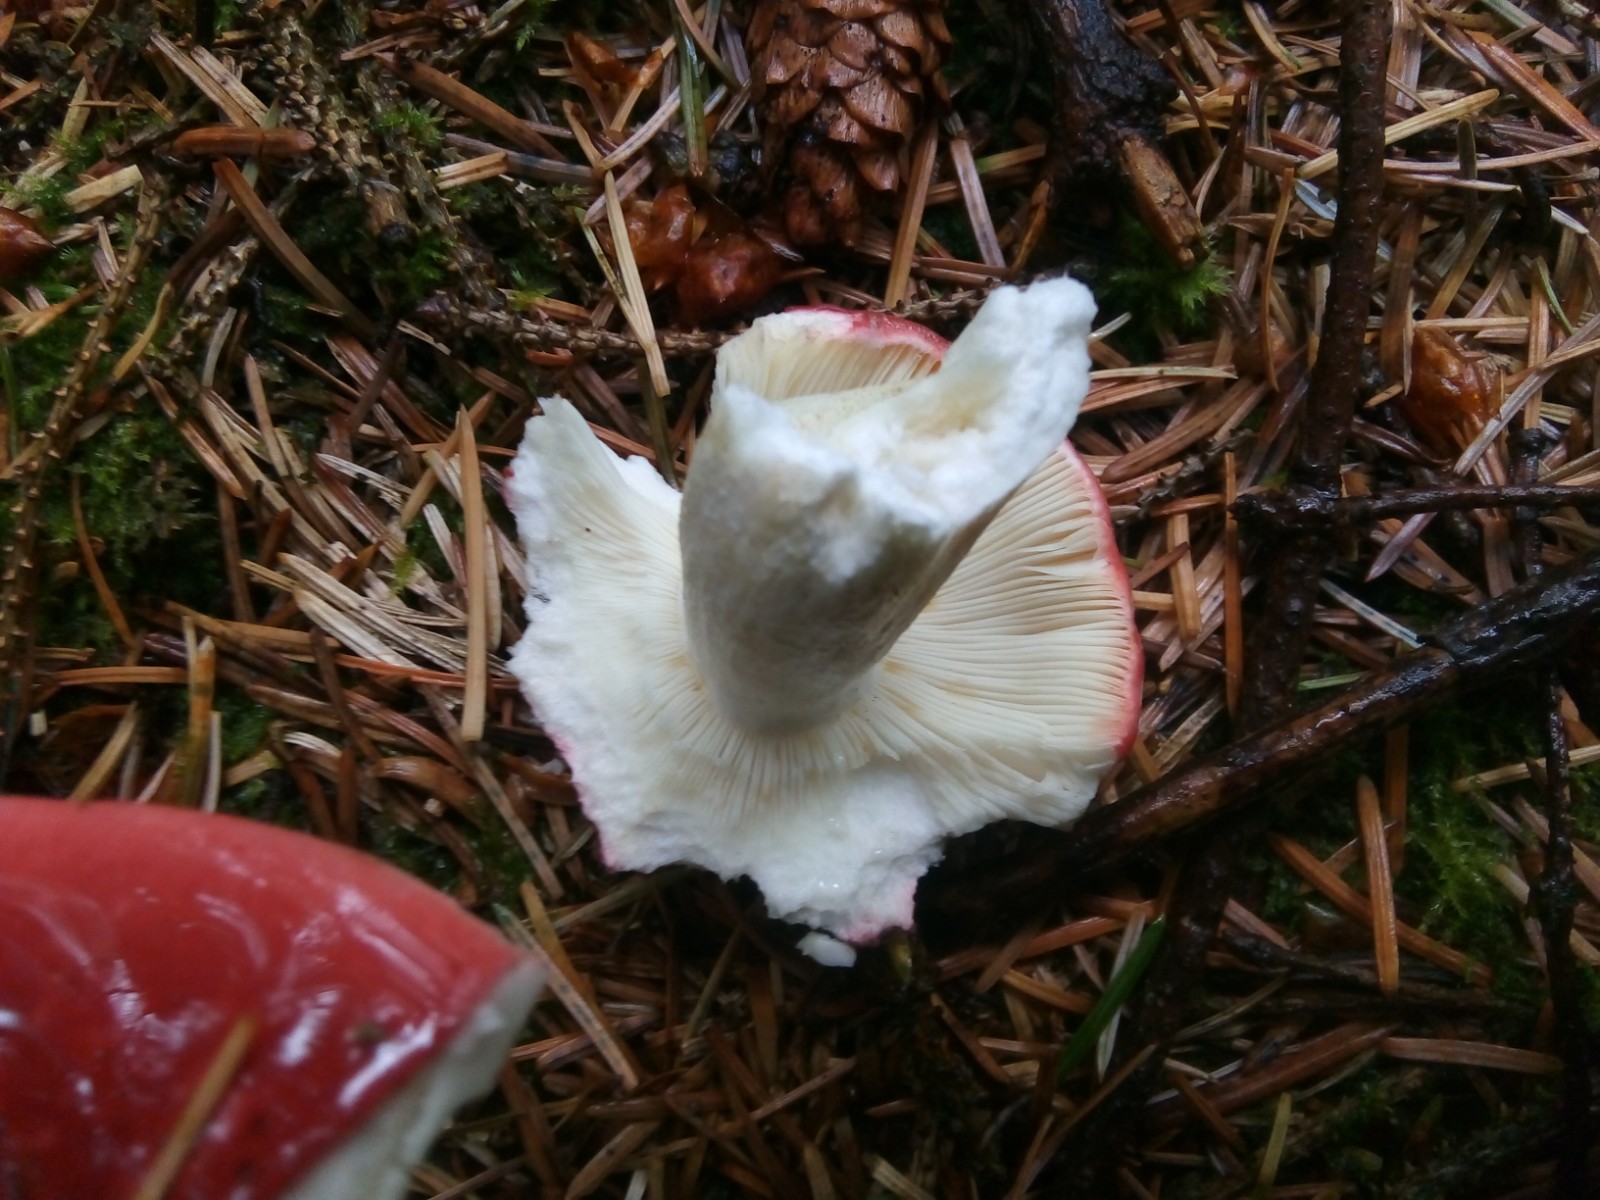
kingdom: Fungi
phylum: Basidiomycota
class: Agaricomycetes
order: Russulales
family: Russulaceae
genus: Russula
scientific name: Russula vinosa
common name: vinrød skørhat
